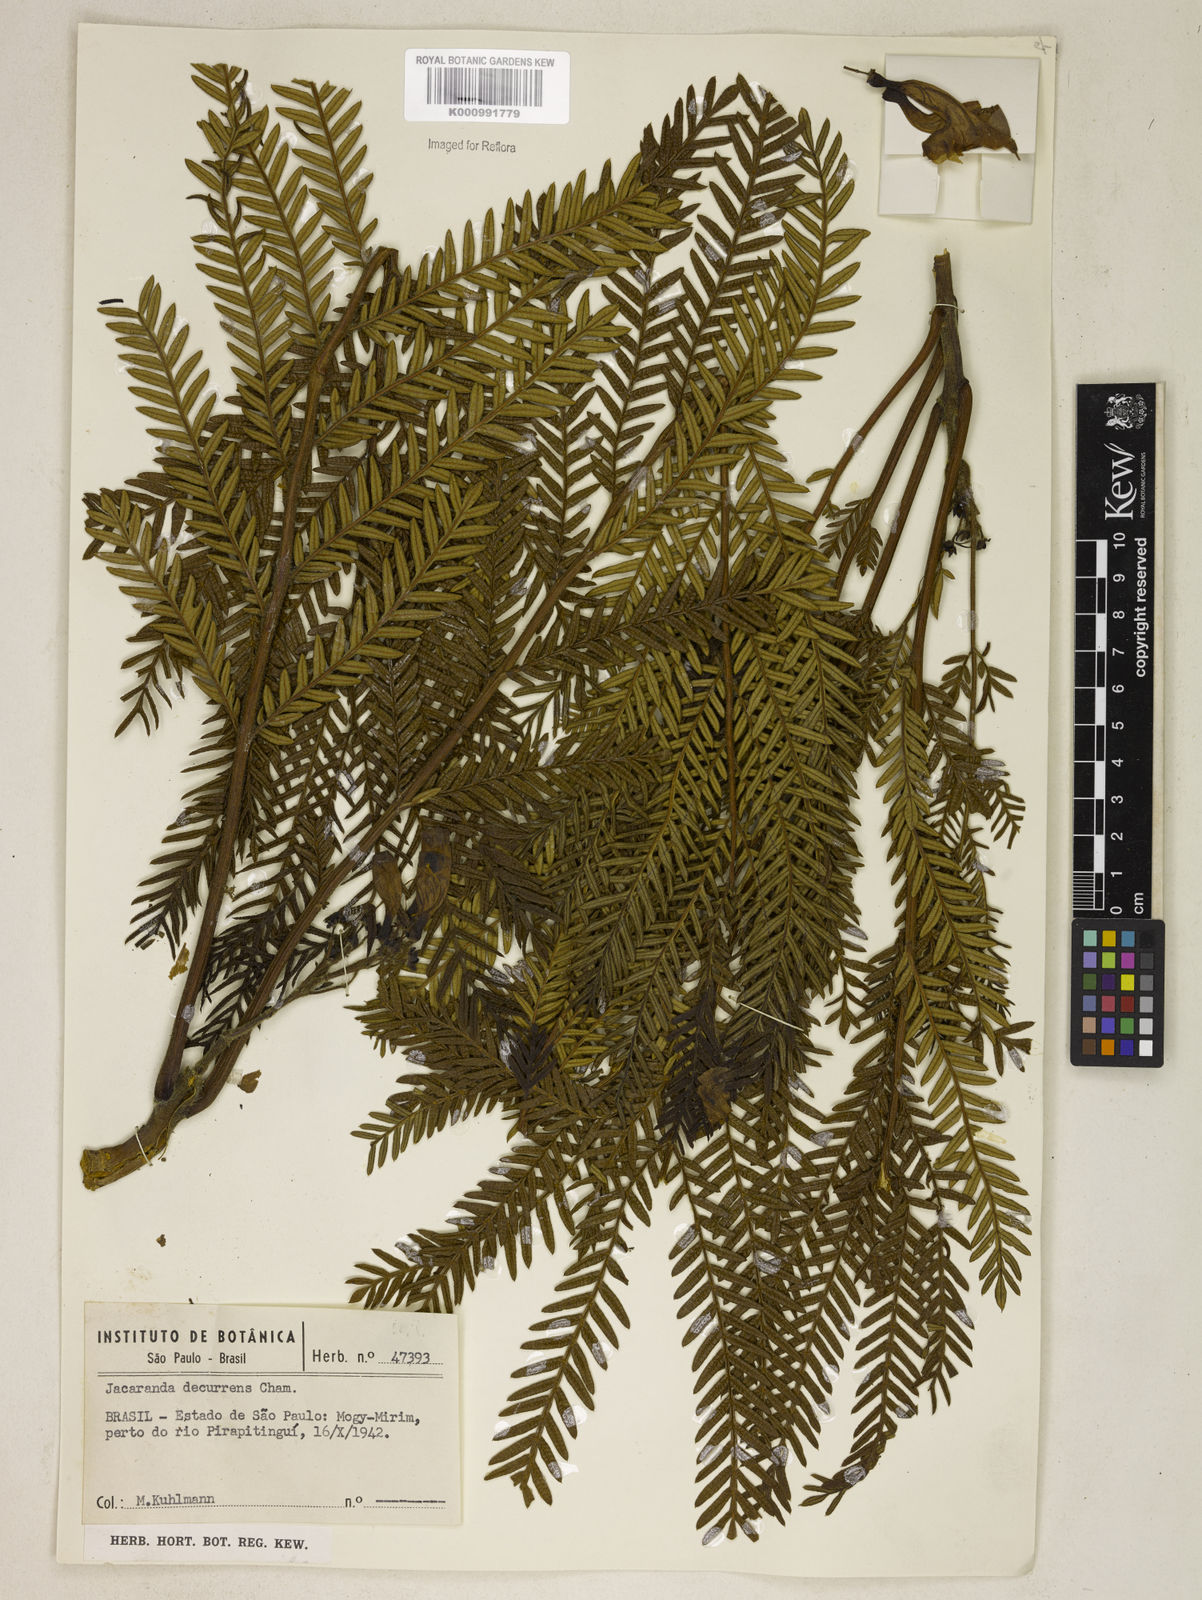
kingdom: Plantae
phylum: Tracheophyta
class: Magnoliopsida
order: Lamiales
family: Bignoniaceae
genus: Jacaranda
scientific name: Jacaranda decurrens
